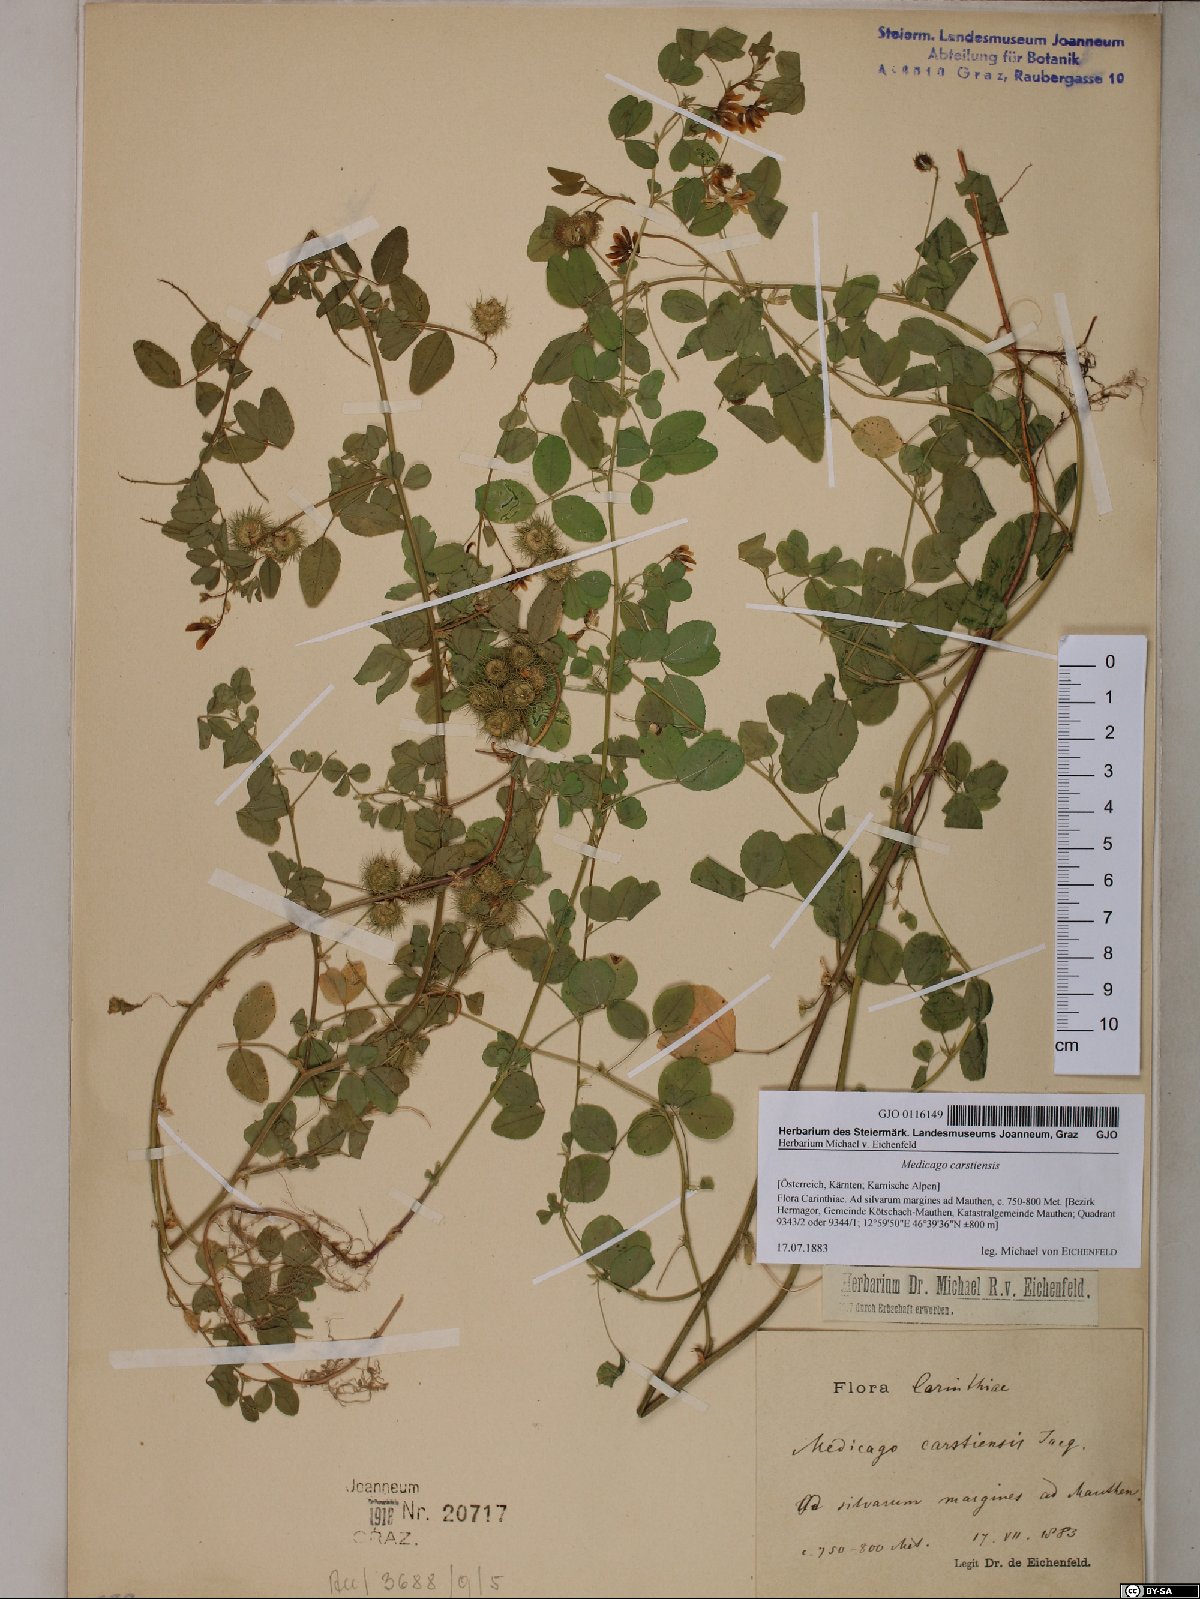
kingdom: Plantae
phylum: Tracheophyta
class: Magnoliopsida
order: Fabales
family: Fabaceae
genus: Medicago
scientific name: Medicago carstiensis
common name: Creeping-rooted medic
